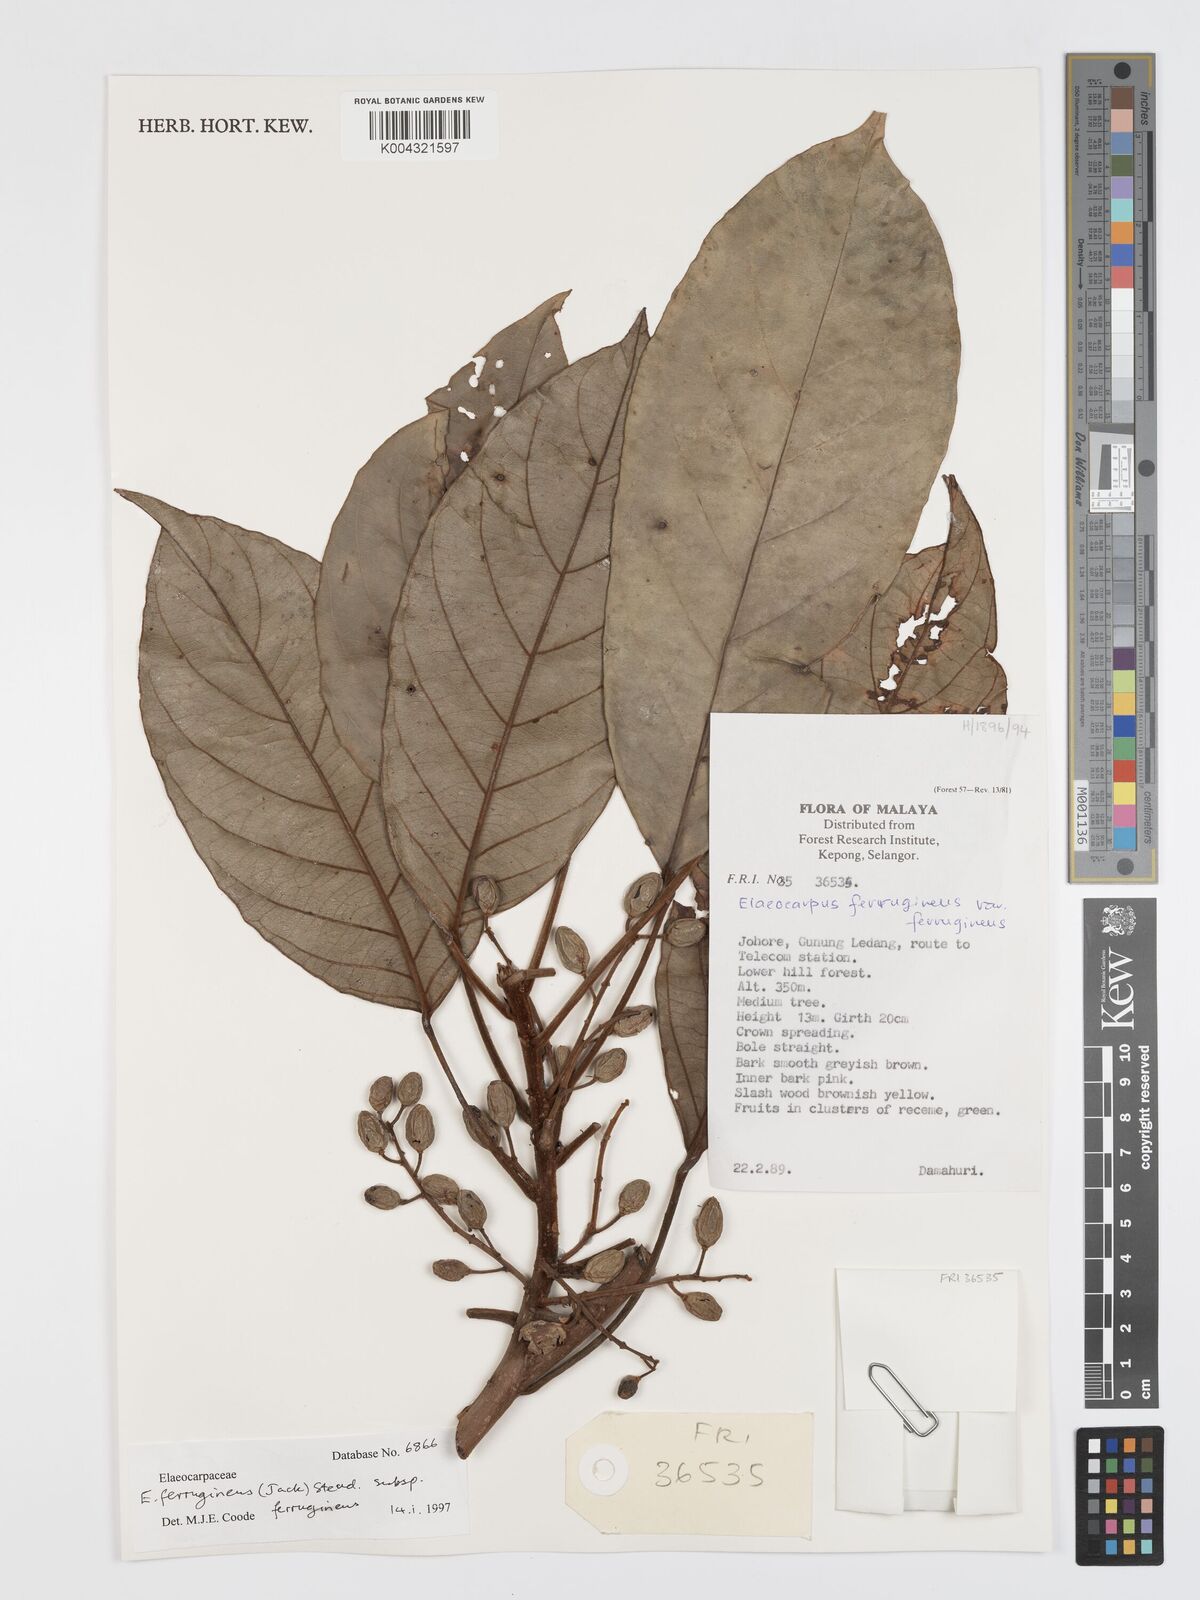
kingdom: Plantae
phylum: Tracheophyta
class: Magnoliopsida
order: Oxalidales
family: Elaeocarpaceae
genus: Elaeocarpus
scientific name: Elaeocarpus ferrugineus
